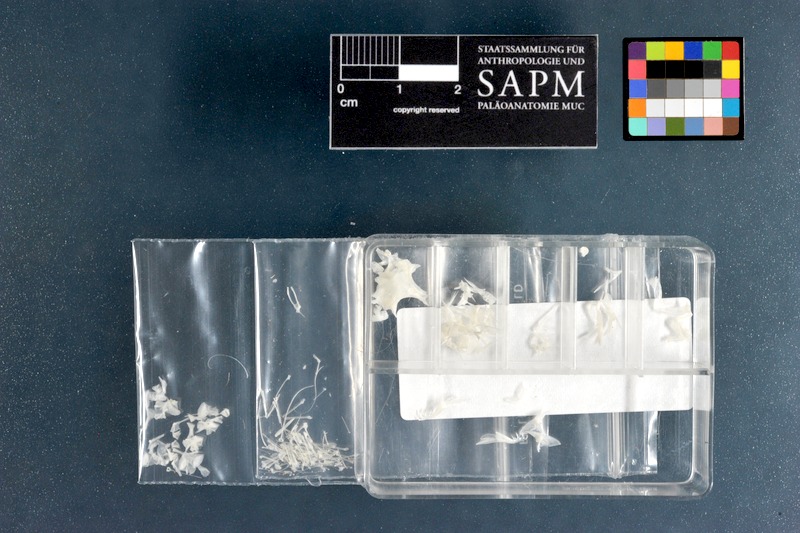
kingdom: Animalia
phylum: Chordata
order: Perciformes
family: Callionymidae
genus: Synchiropus
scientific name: Synchiropus splendidus
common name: Mandarinfish
